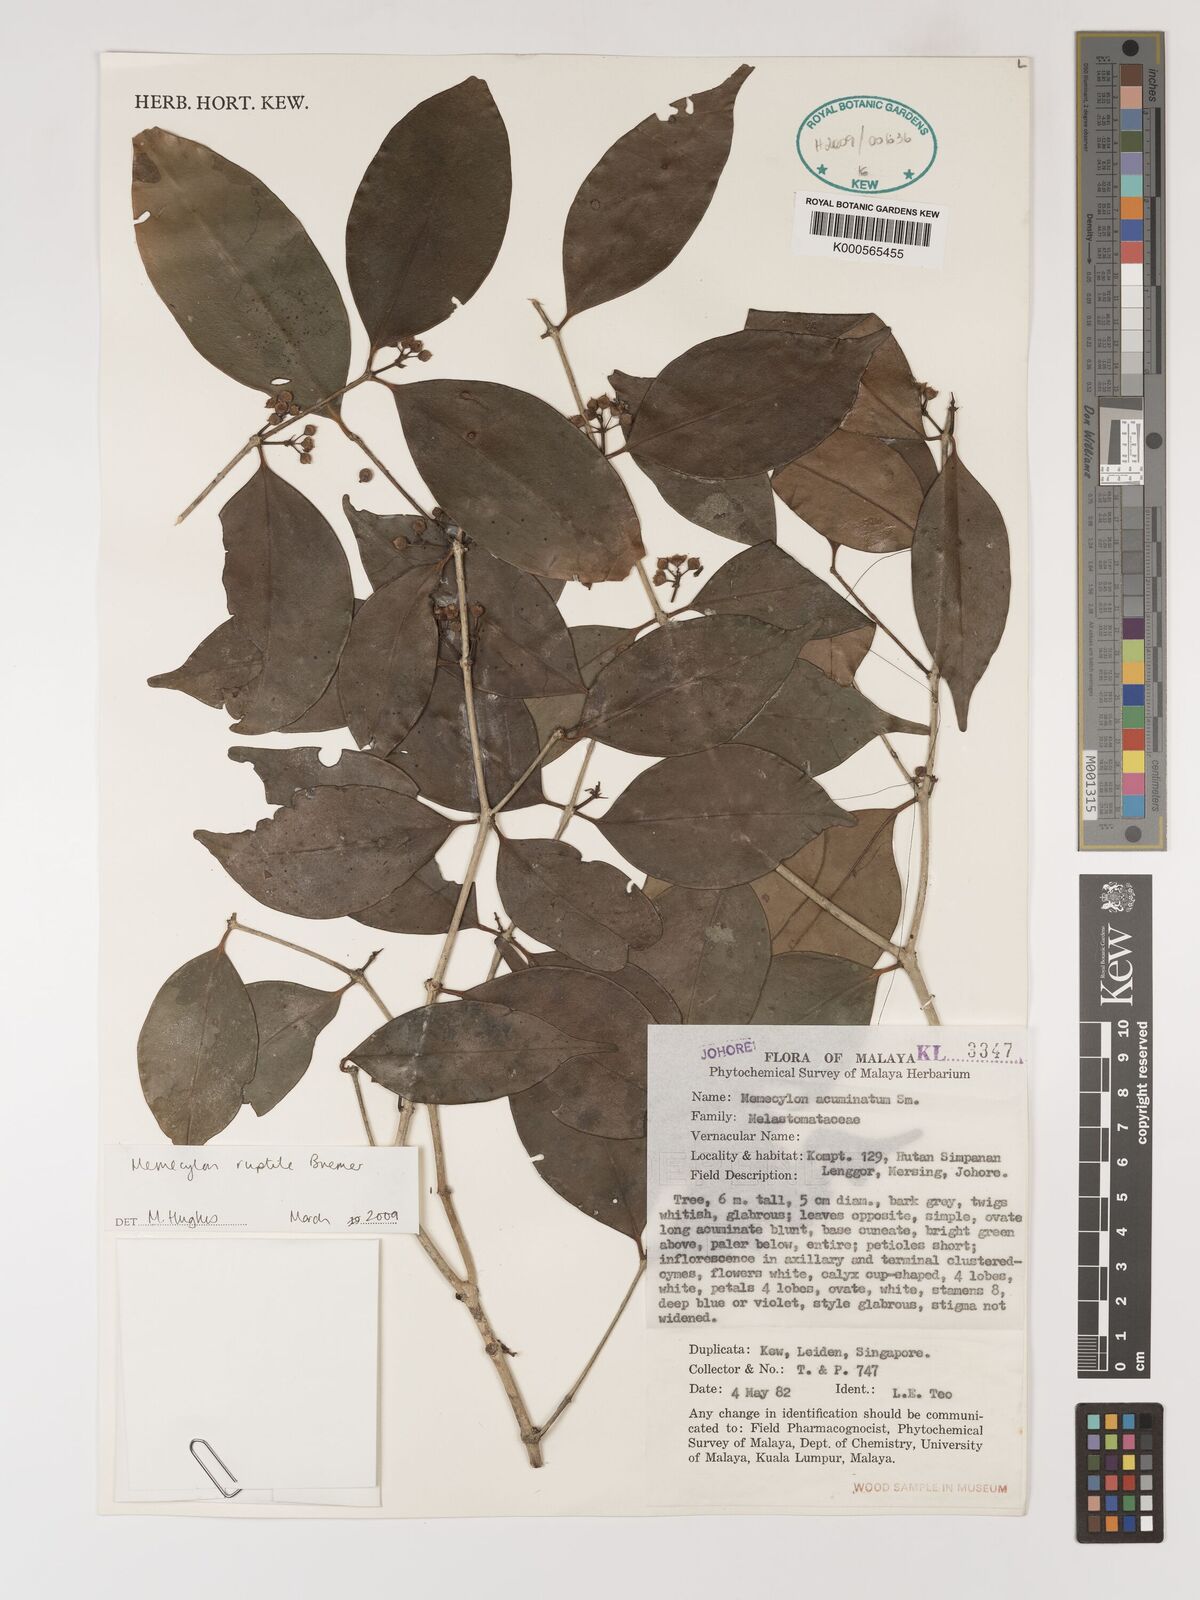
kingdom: Plantae
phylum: Tracheophyta
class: Magnoliopsida
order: Myrtales
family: Melastomataceae
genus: Memecylon
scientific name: Memecylon ruptile
